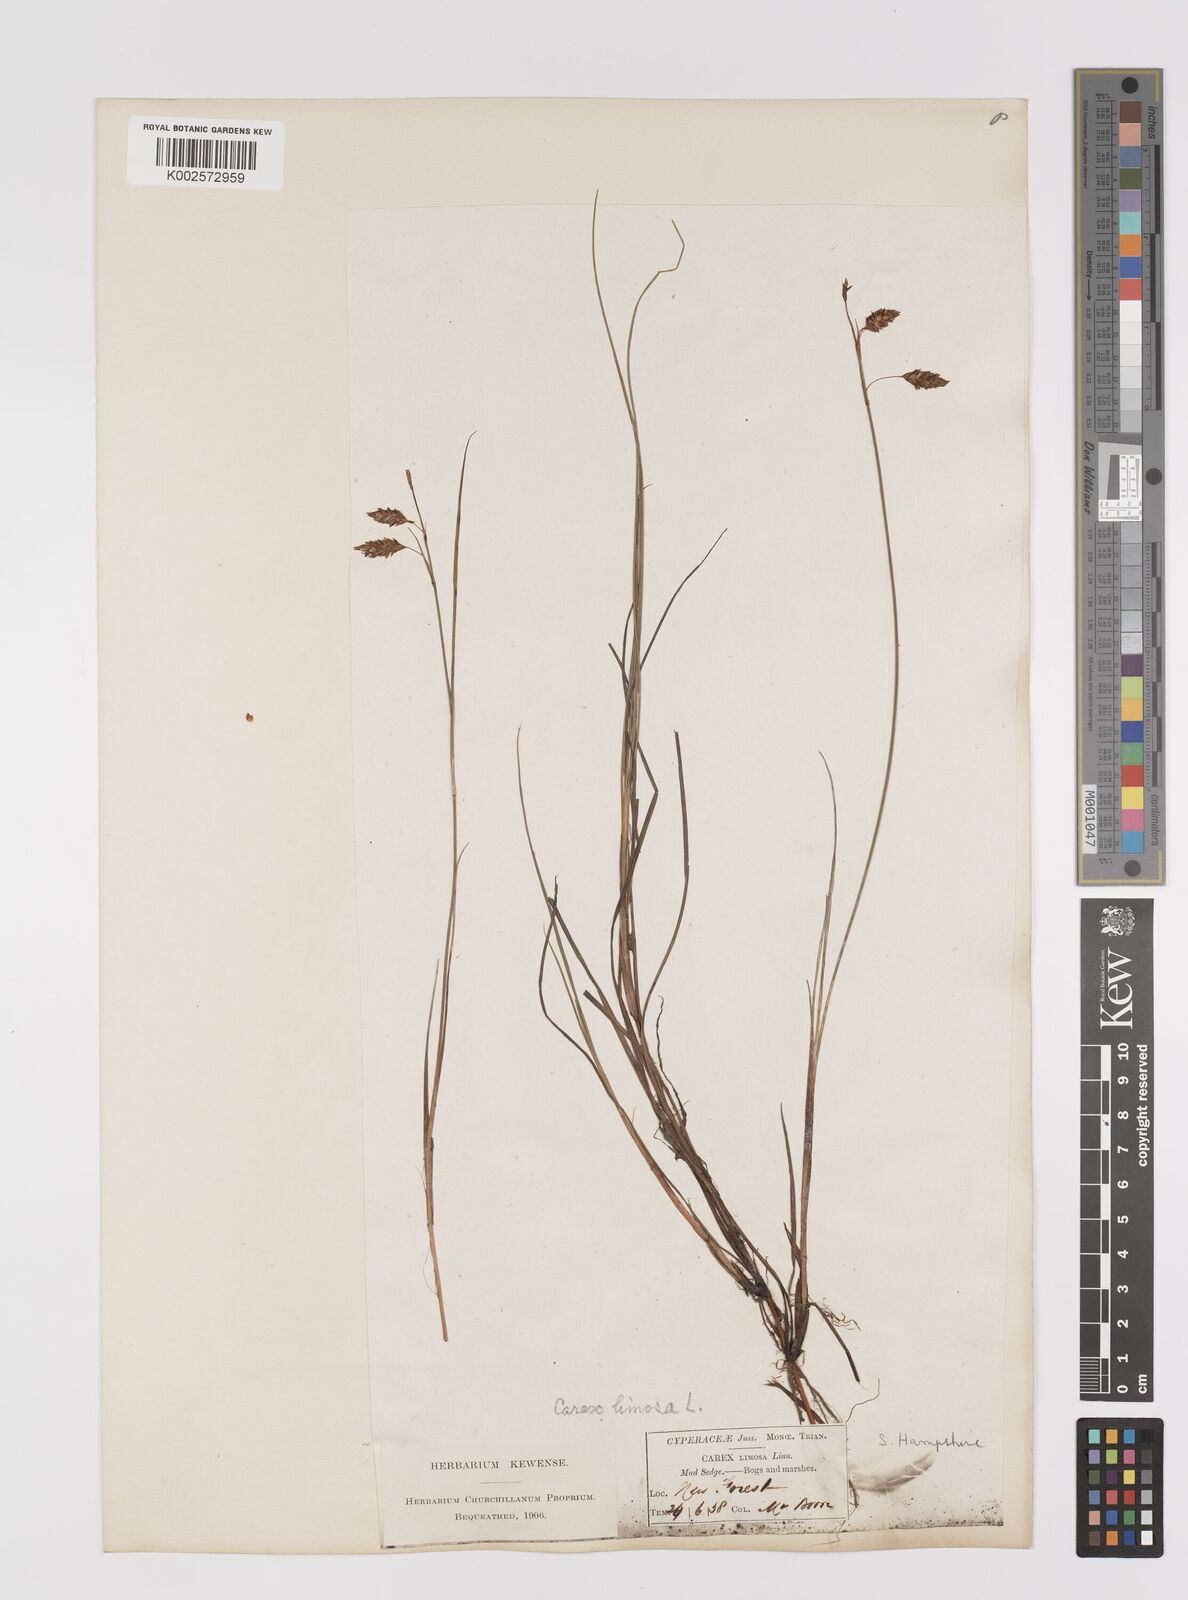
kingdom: Plantae
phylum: Tracheophyta
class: Liliopsida
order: Poales
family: Cyperaceae
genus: Carex
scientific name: Carex limosa
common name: Bog sedge
